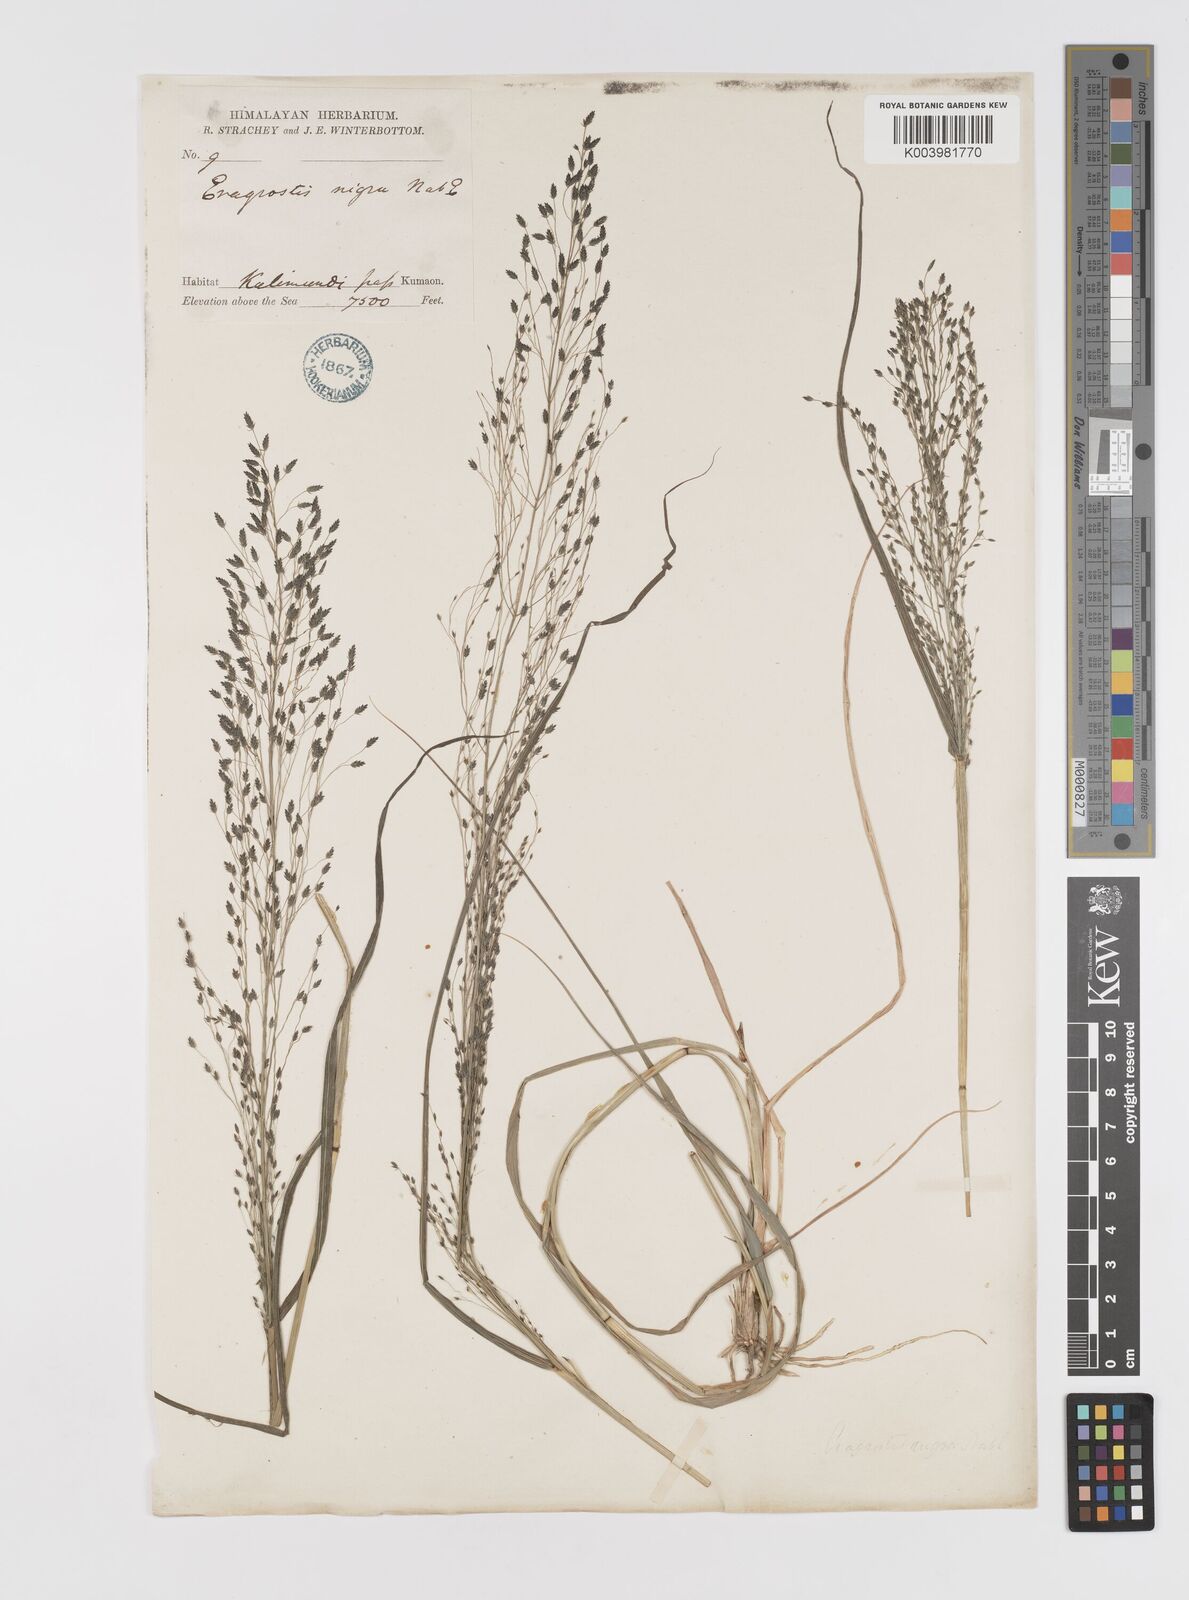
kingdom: Plantae
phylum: Tracheophyta
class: Liliopsida
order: Poales
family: Poaceae
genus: Eragrostis
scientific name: Eragrostis nigra
